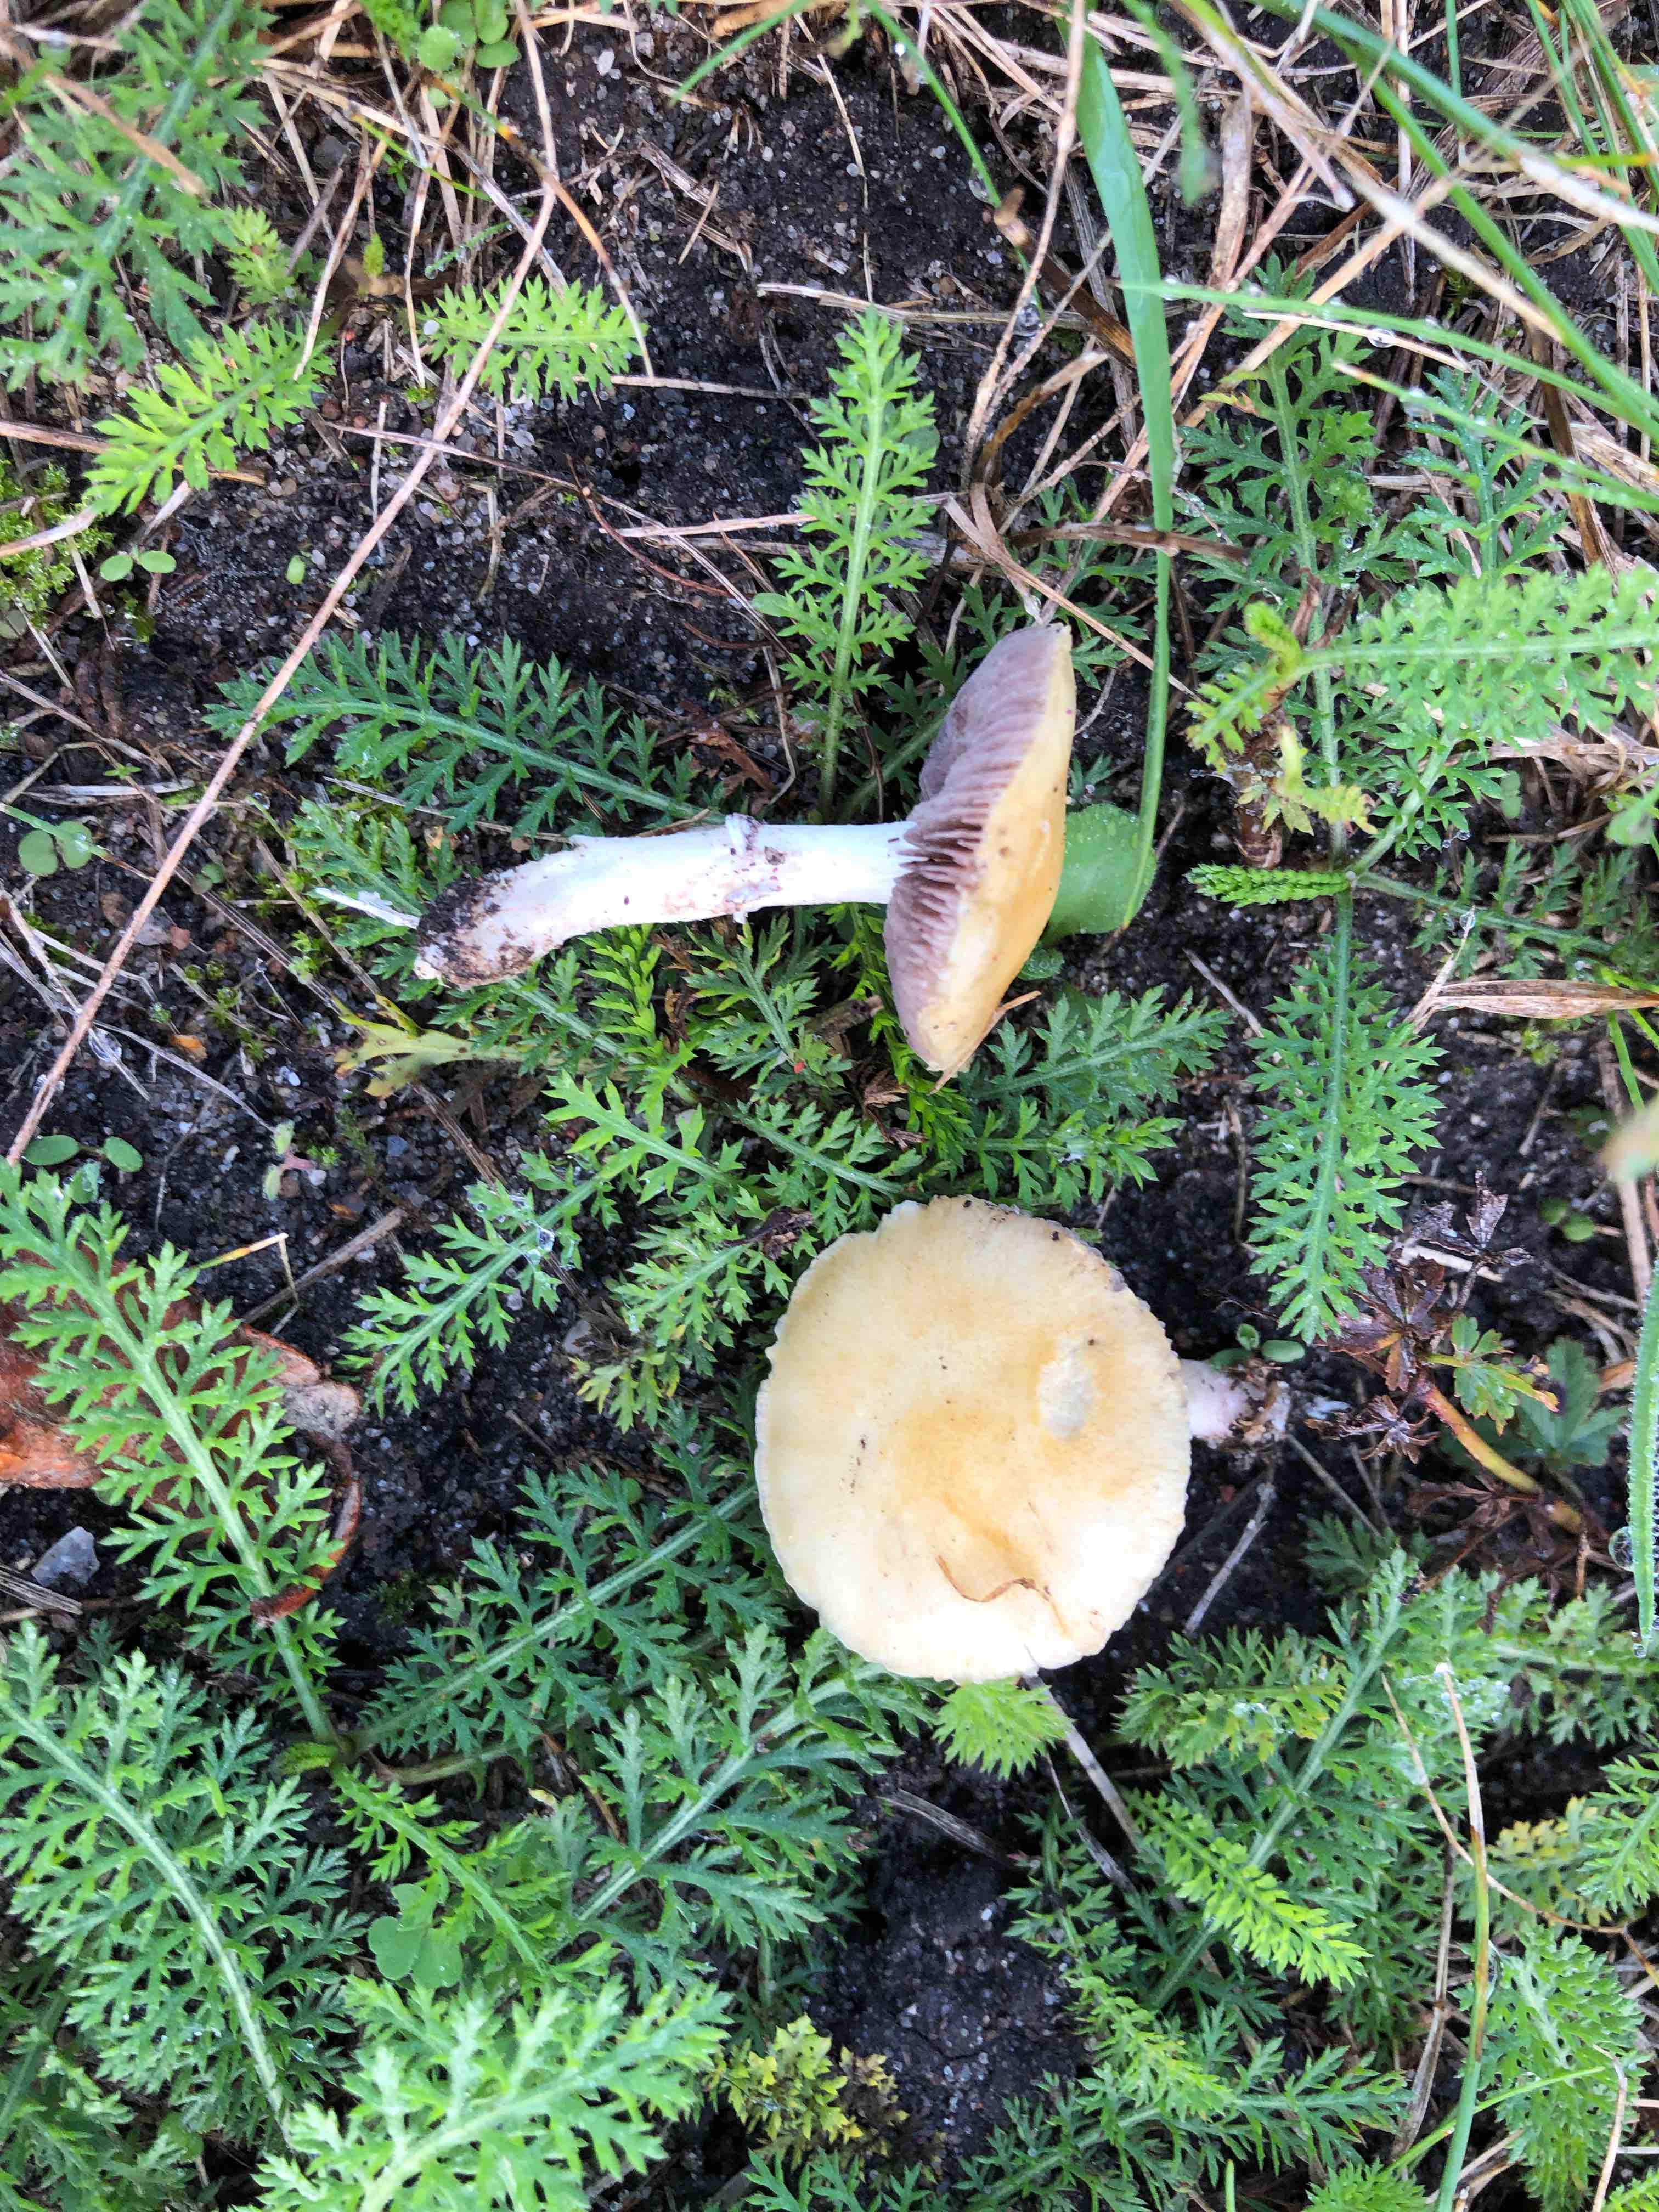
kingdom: Fungi
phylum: Basidiomycota
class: Agaricomycetes
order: Agaricales
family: Hymenogastraceae
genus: Psilocybe
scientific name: Psilocybe coronilla
